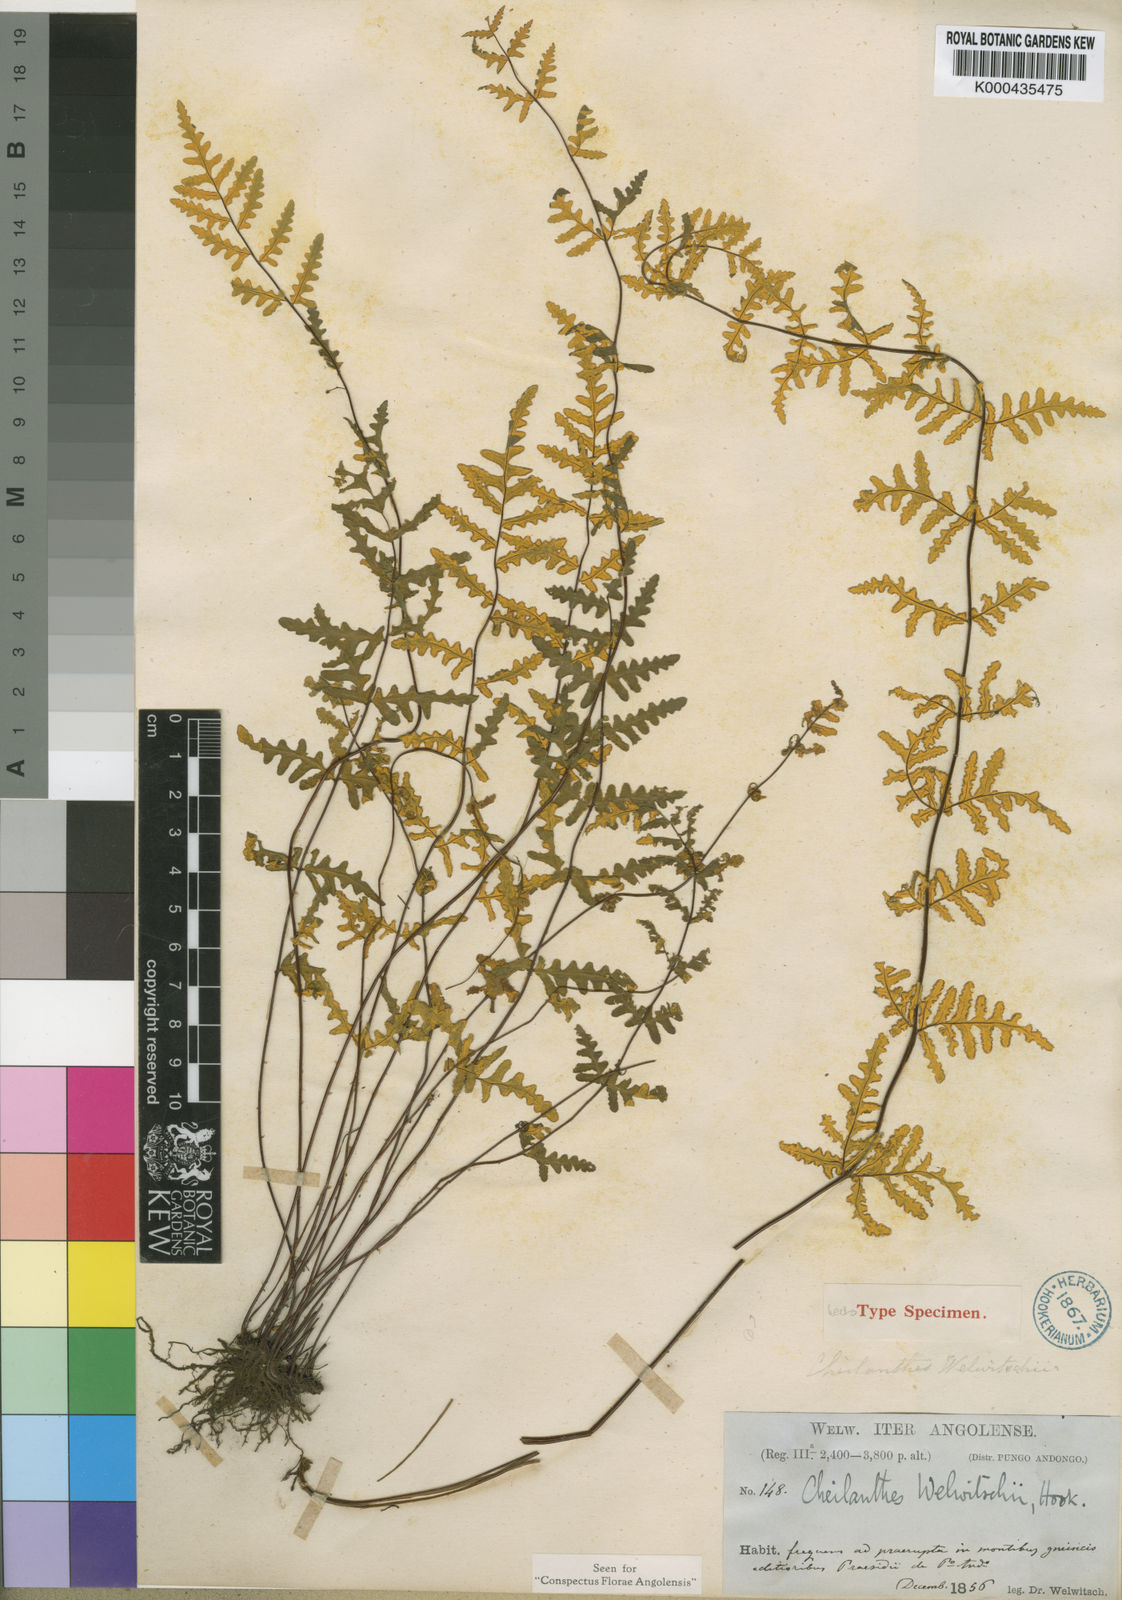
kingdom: Plantae
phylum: Tracheophyta
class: Polypodiopsida
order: Polypodiales
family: Pteridaceae
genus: Aleuritopteris
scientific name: Aleuritopteris welwitschii
